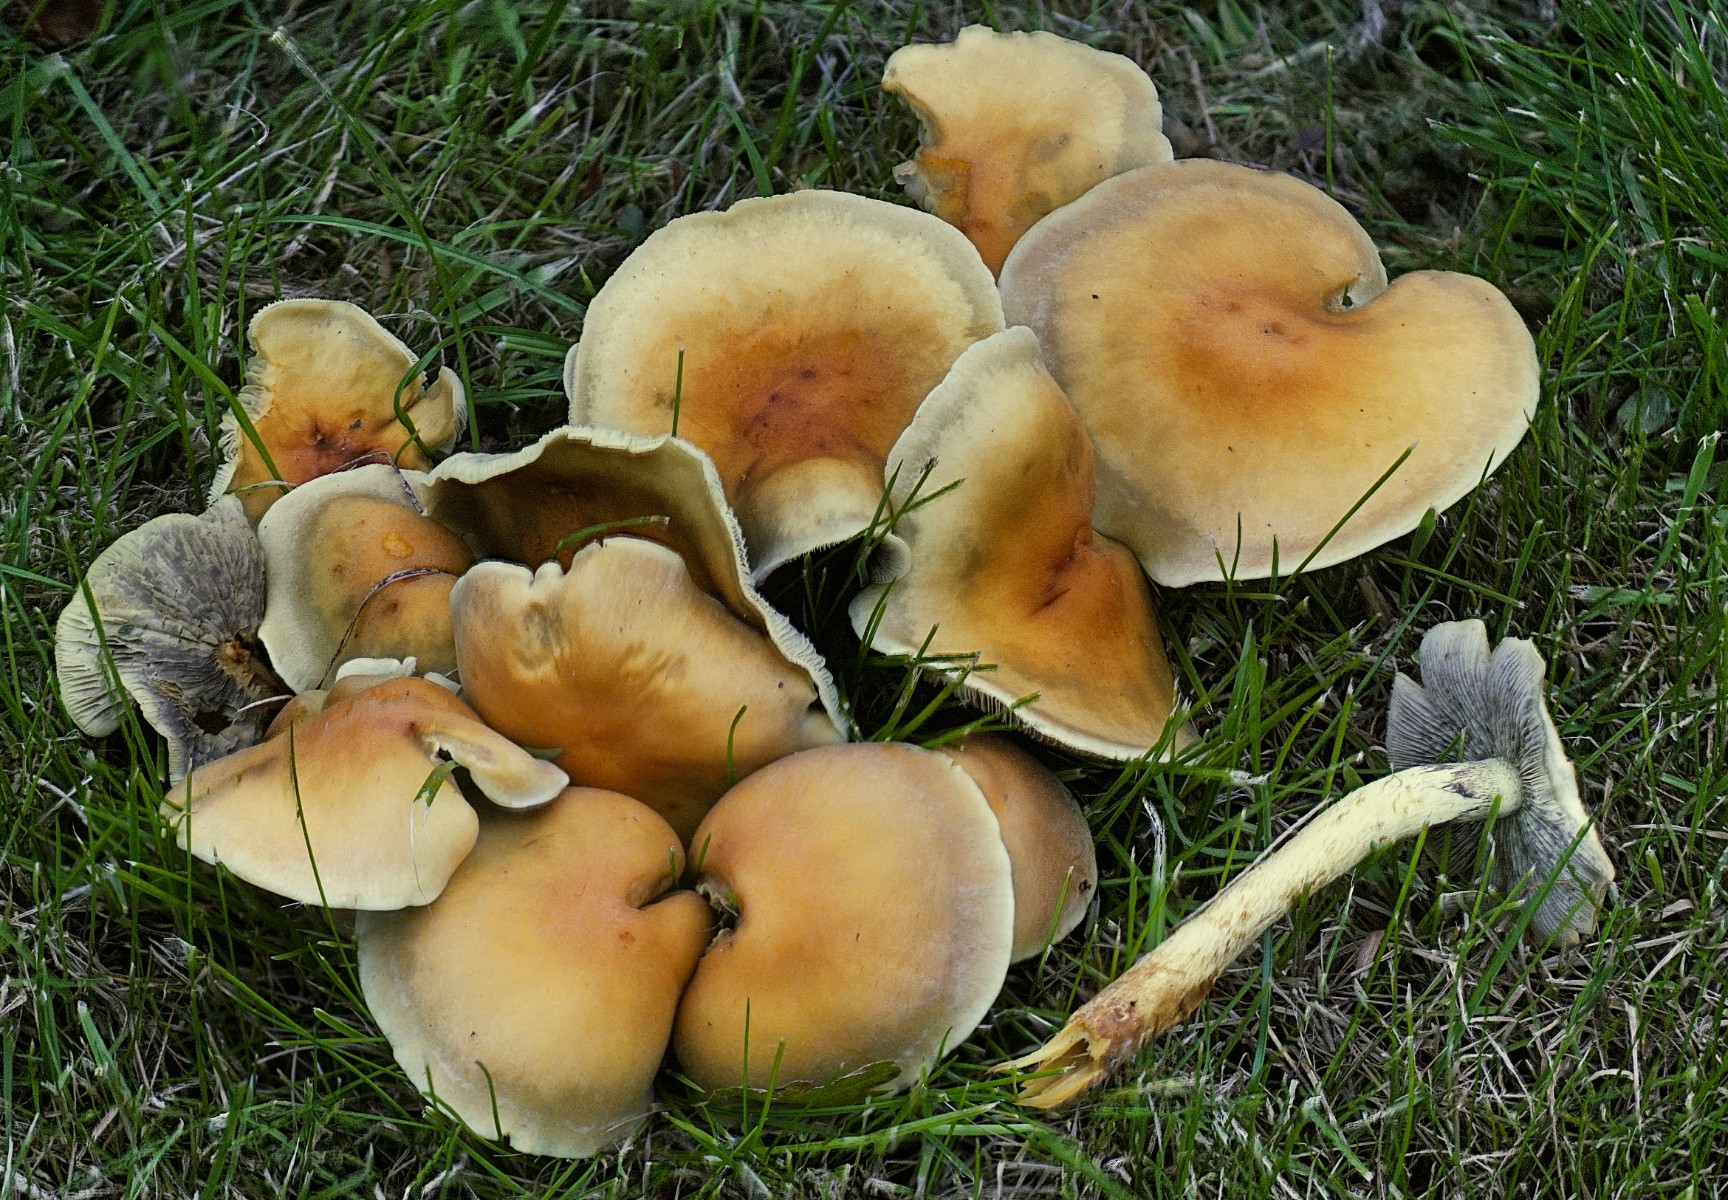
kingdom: Fungi
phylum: Basidiomycota
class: Agaricomycetes
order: Agaricales
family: Strophariaceae
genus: Hypholoma
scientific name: Hypholoma fasciculare
